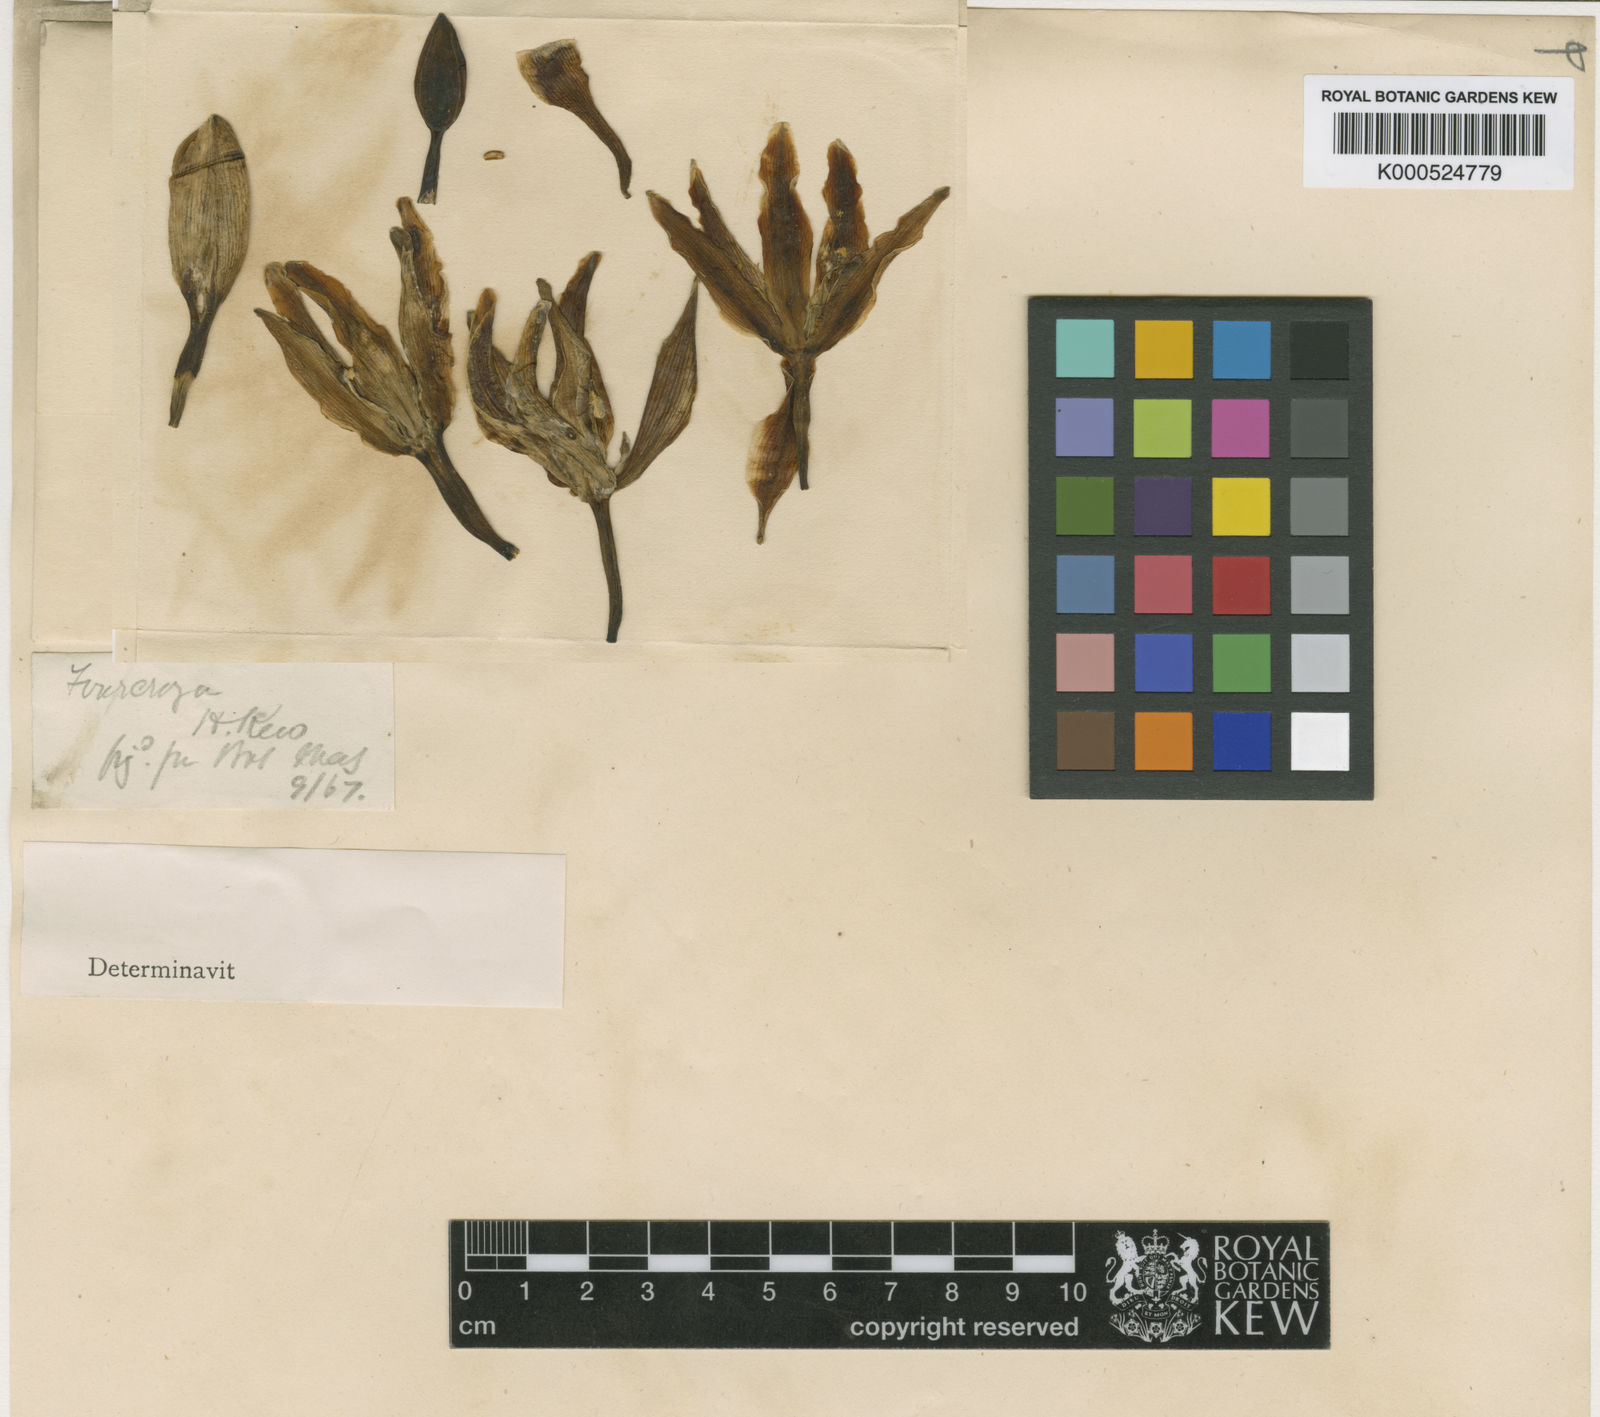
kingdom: Plantae
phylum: Tracheophyta
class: Liliopsida
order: Asparagales
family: Asparagaceae
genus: Furcraea
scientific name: Furcraea
